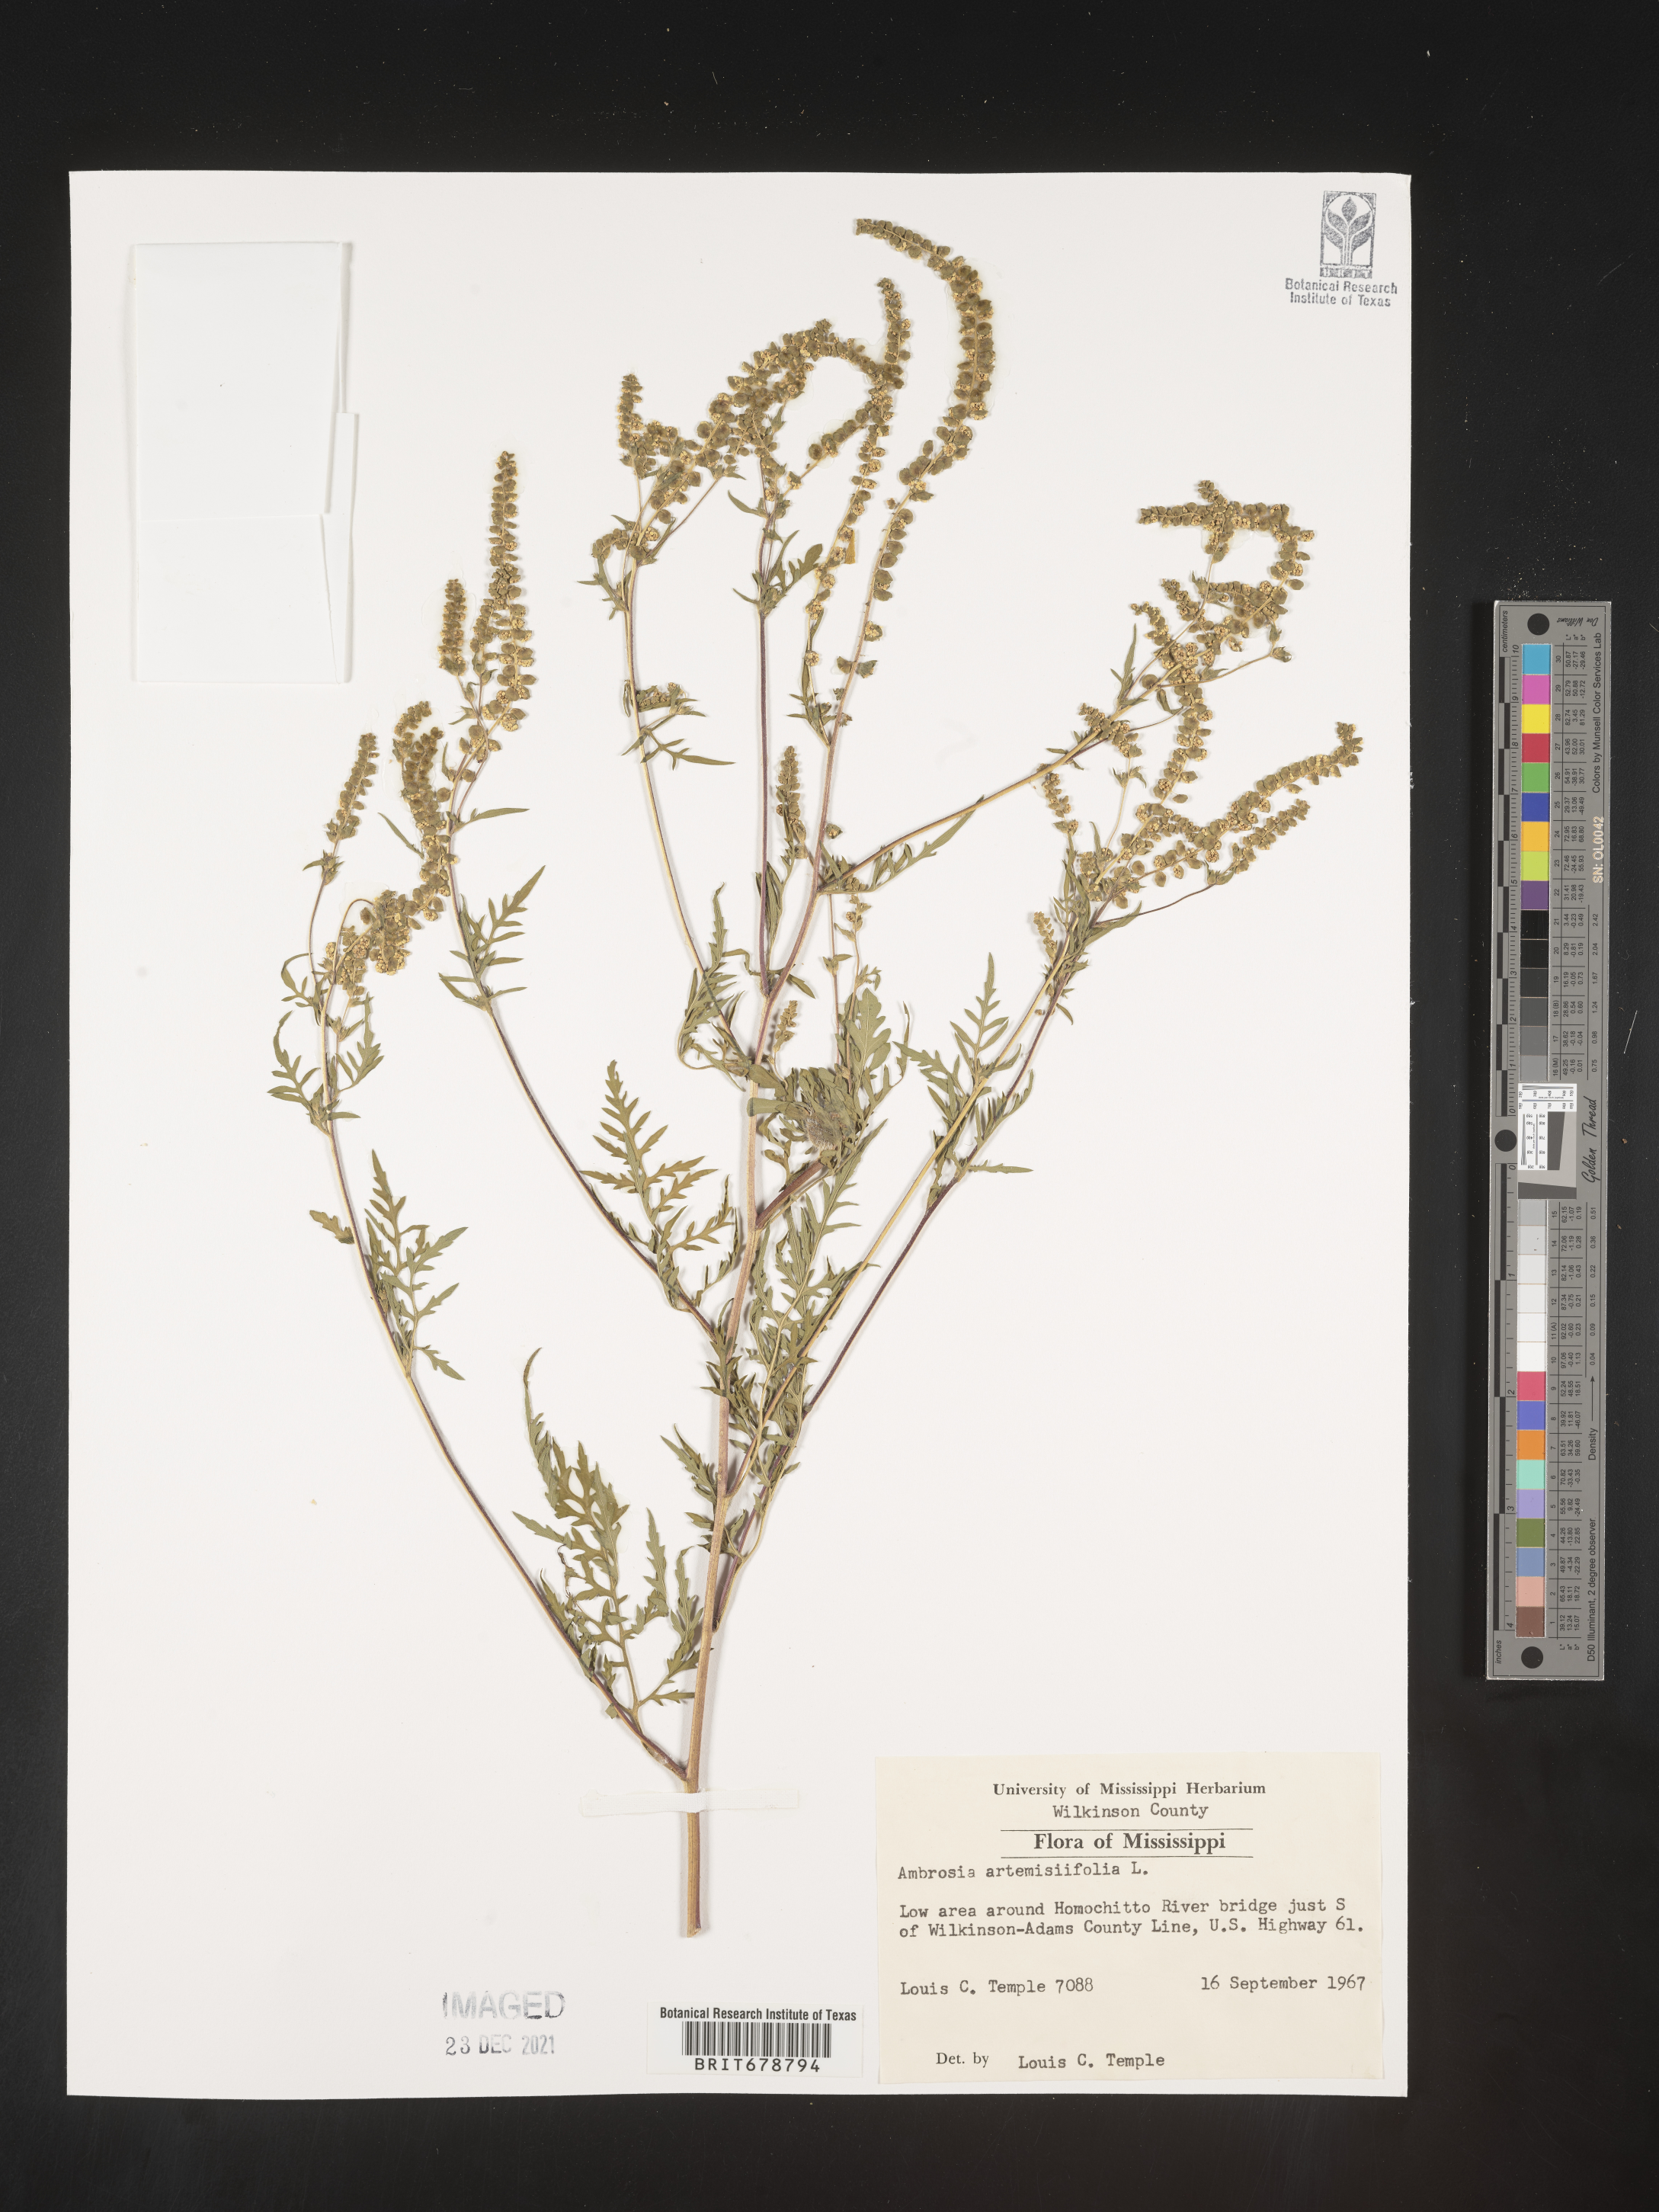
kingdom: Plantae
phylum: Tracheophyta
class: Magnoliopsida
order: Asterales
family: Asteraceae
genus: Ambrosia
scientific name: Ambrosia artemisiifolia
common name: Annual ragweed
